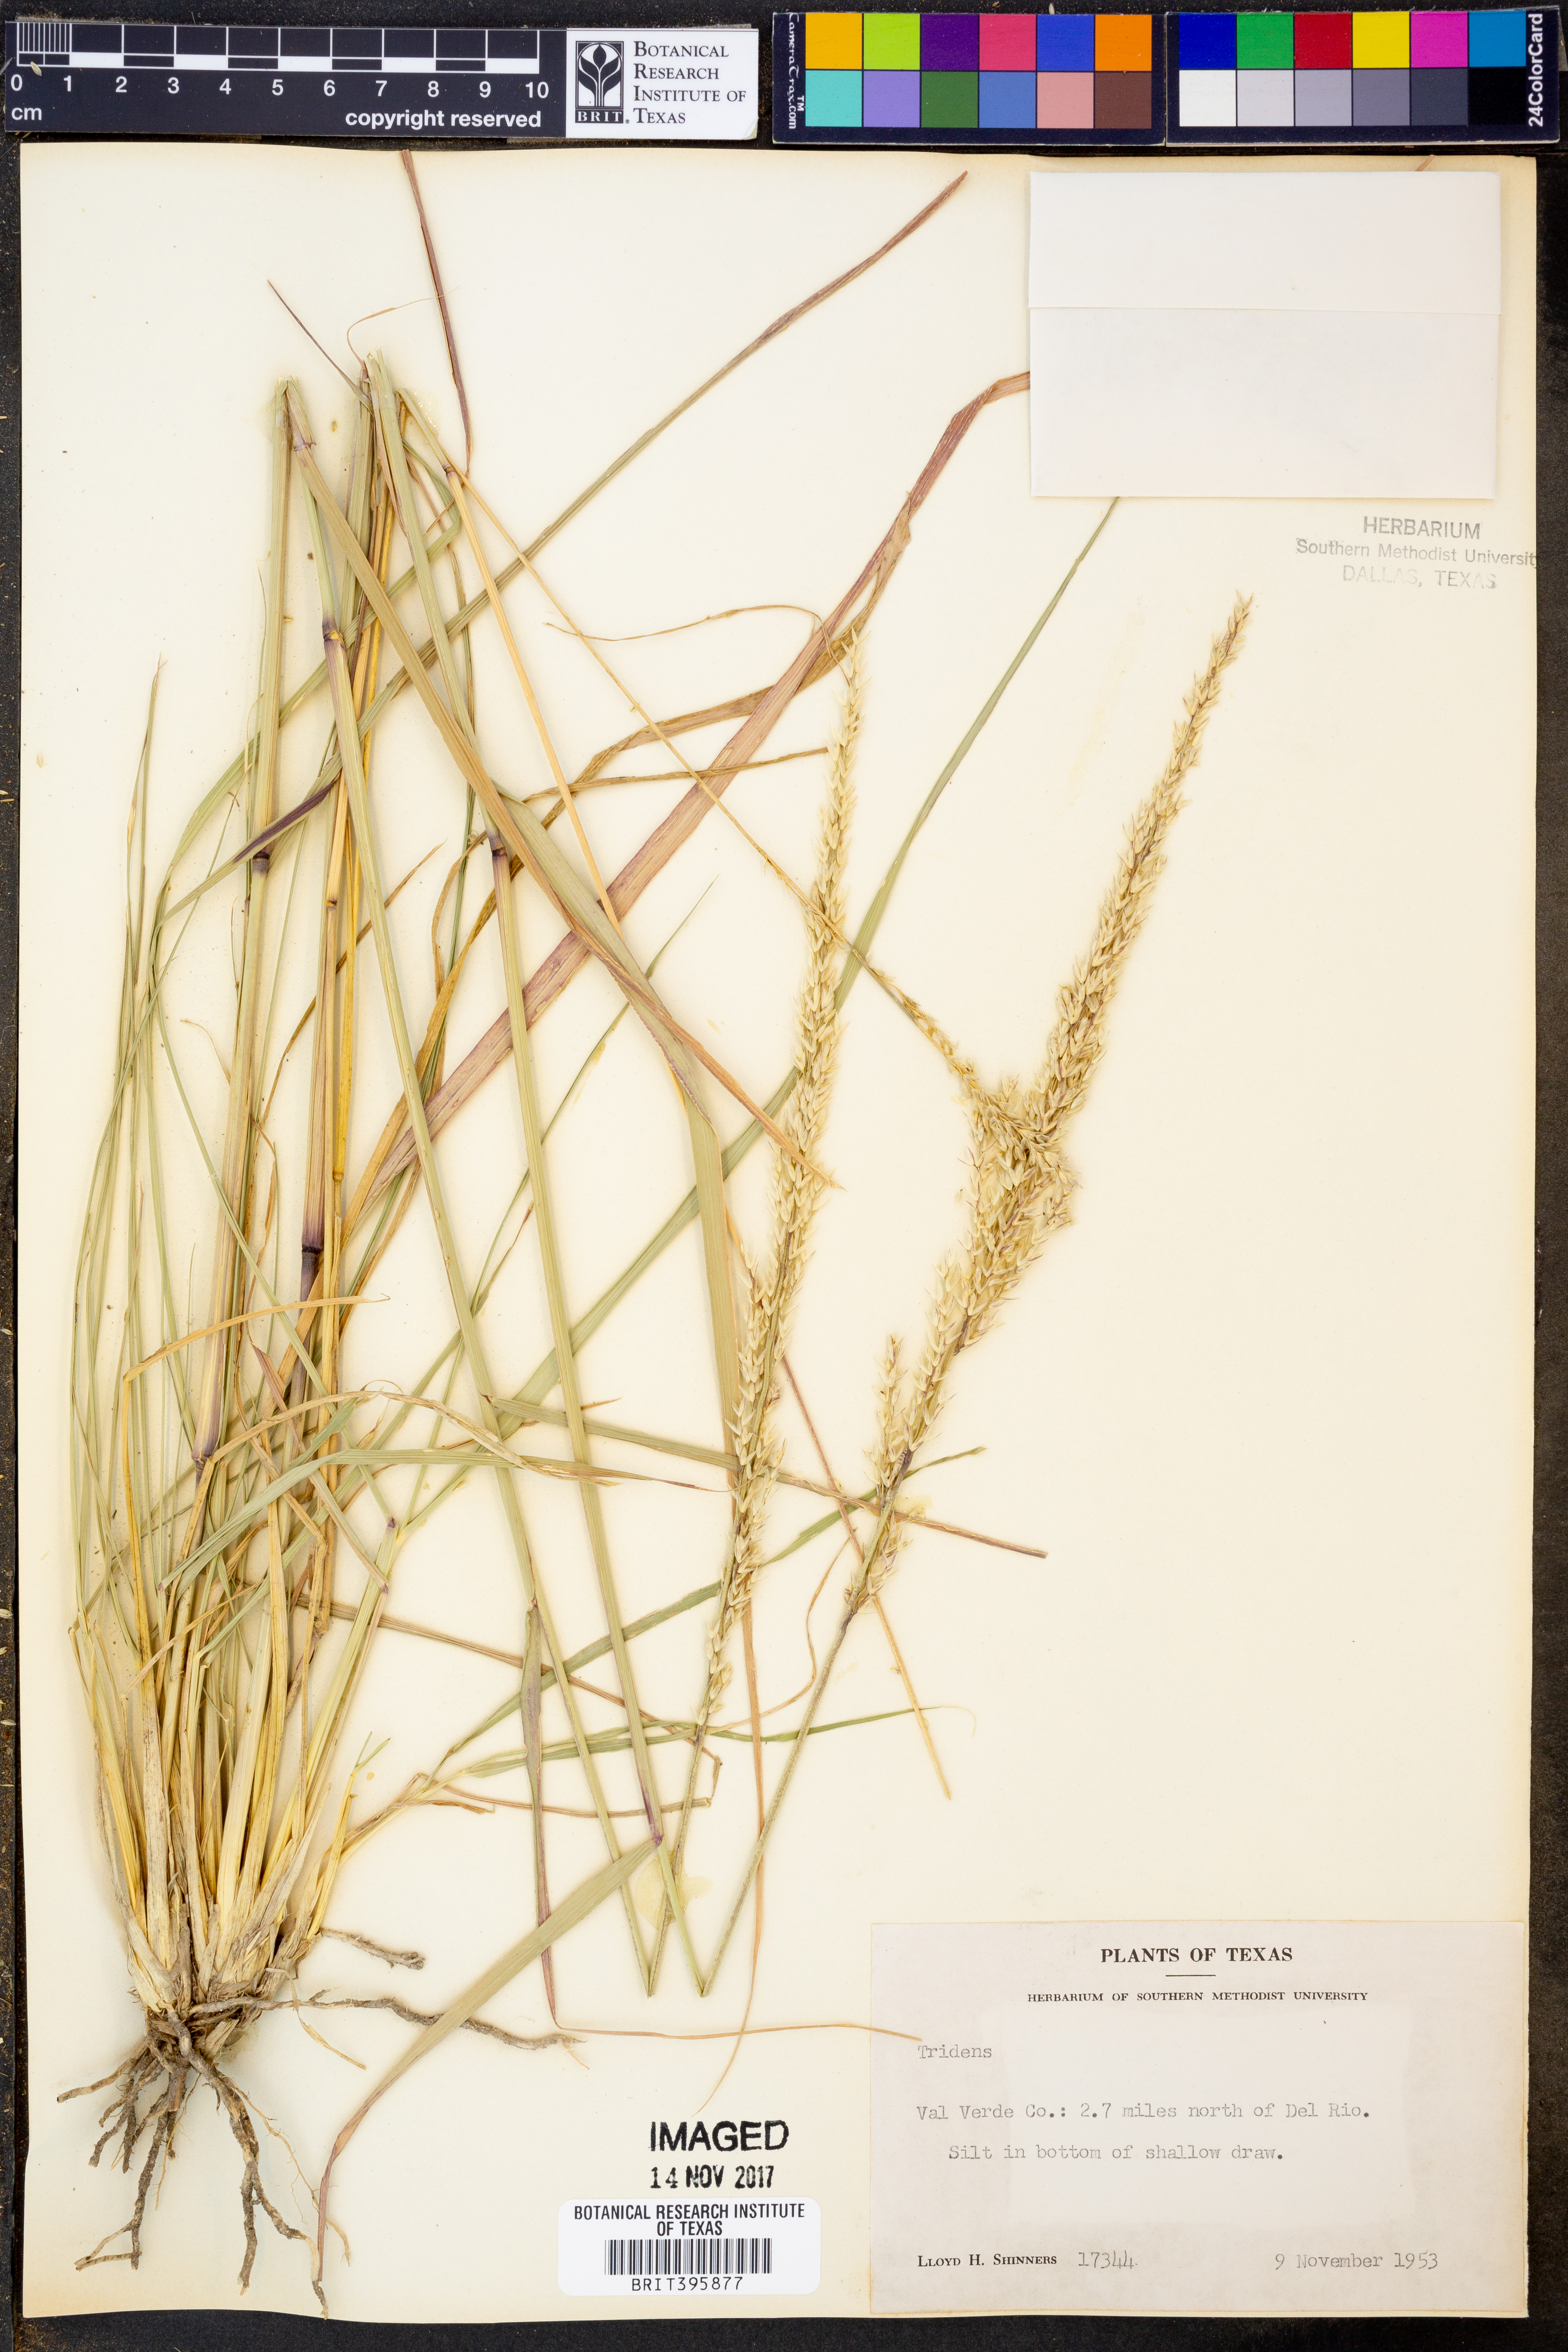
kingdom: Plantae
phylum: Tracheophyta
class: Liliopsida
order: Poales
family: Poaceae
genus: Tridens
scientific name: Tridens
